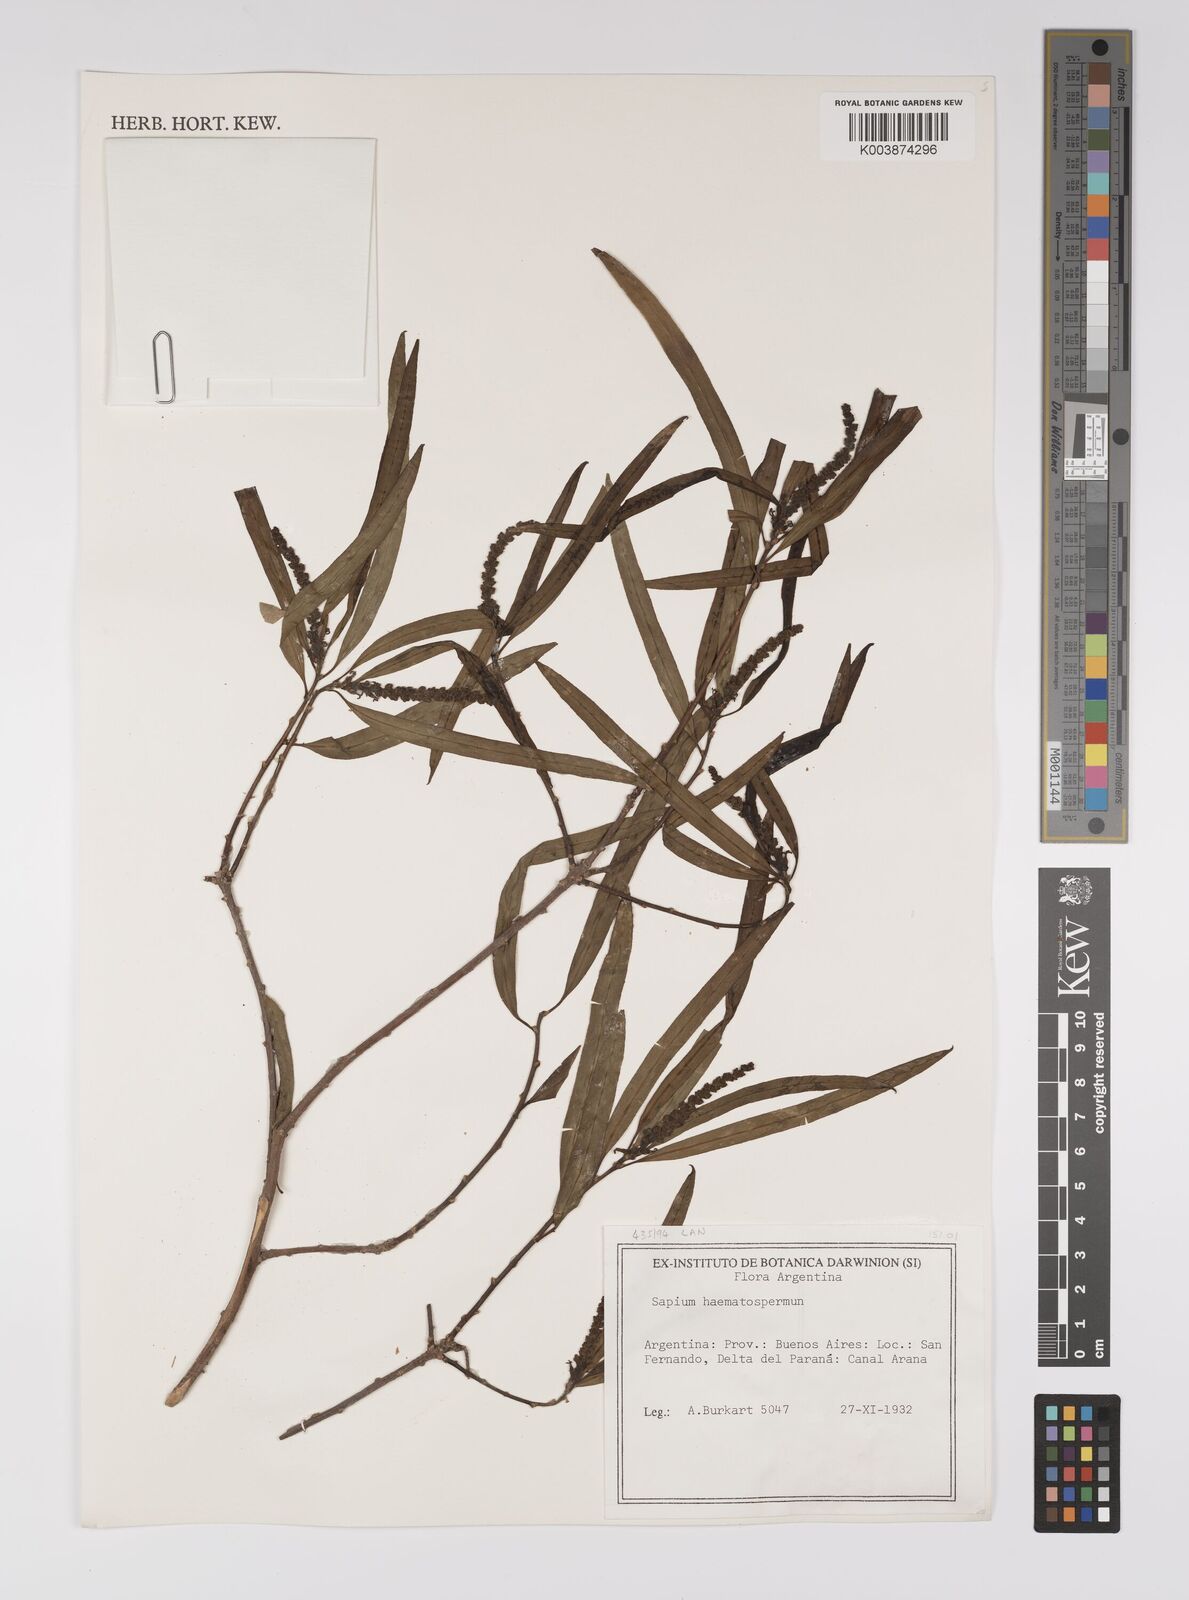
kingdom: Plantae
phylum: Tracheophyta
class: Magnoliopsida
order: Malpighiales
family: Euphorbiaceae
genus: Sapium
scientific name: Sapium haematospermum
